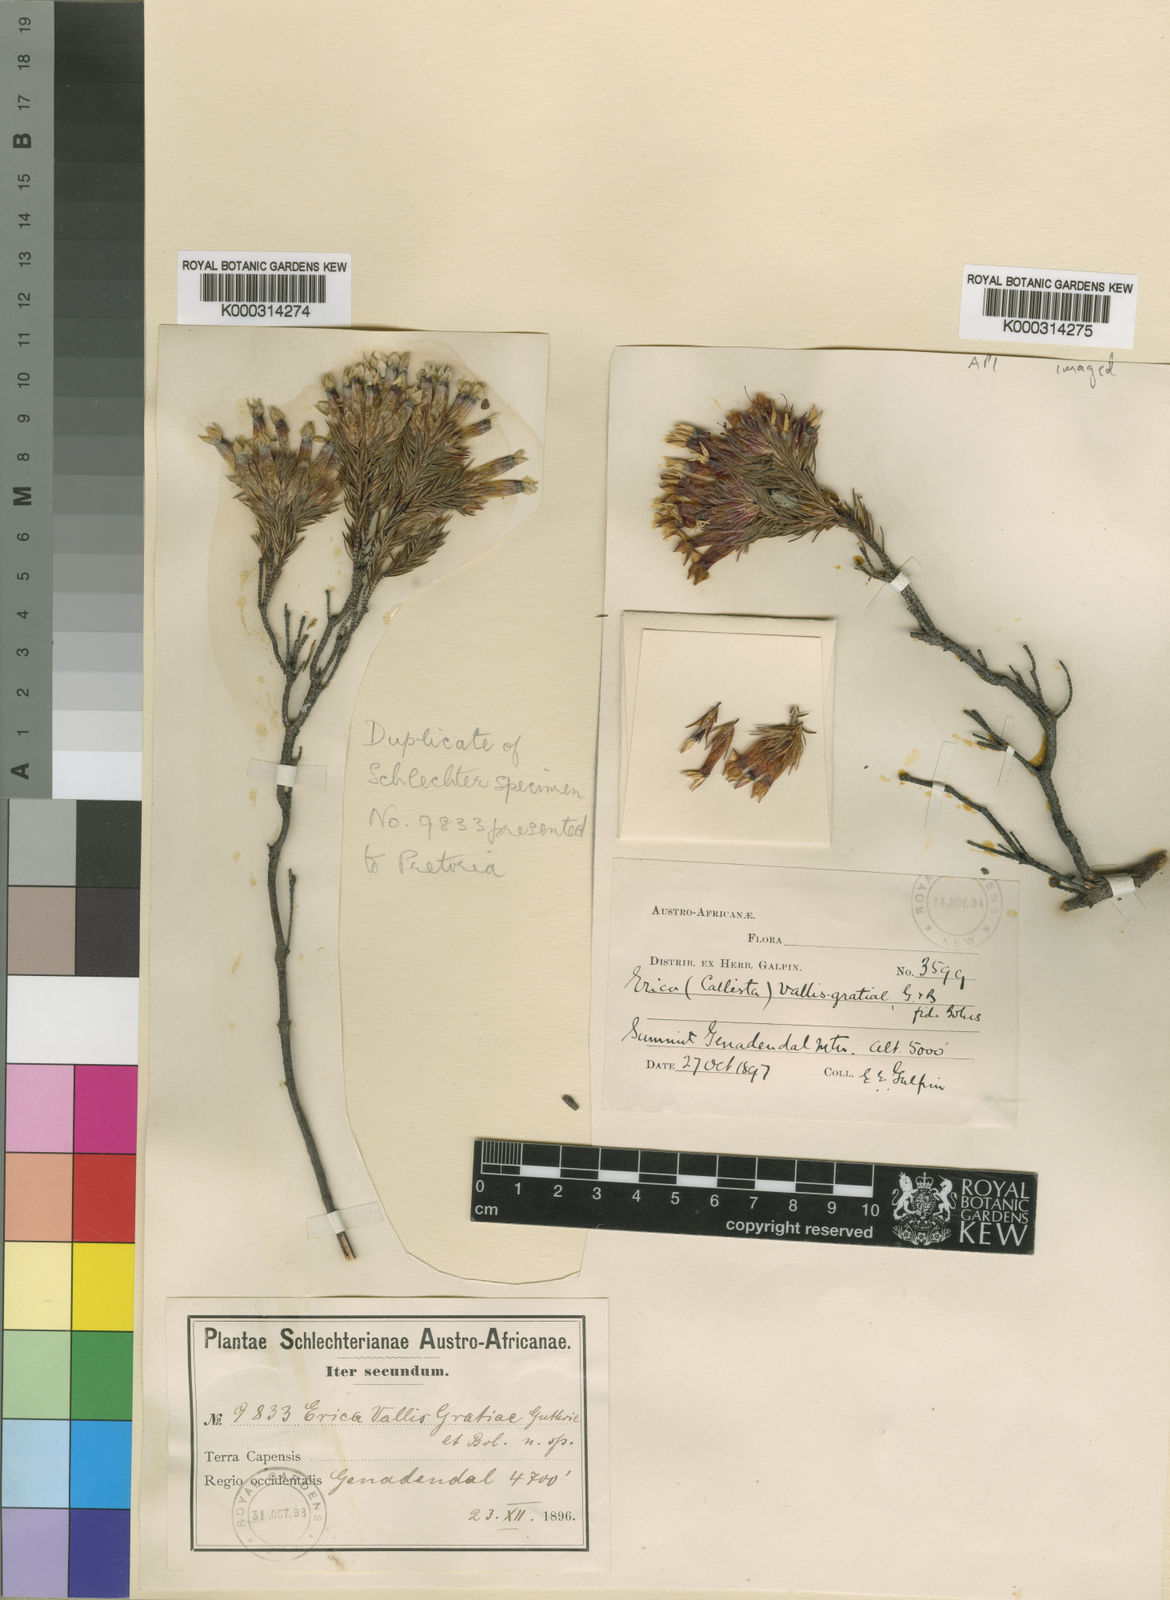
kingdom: Plantae
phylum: Tracheophyta
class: Magnoliopsida
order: Ericales
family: Ericaceae
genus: Erica
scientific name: Erica vallis-gratiae
